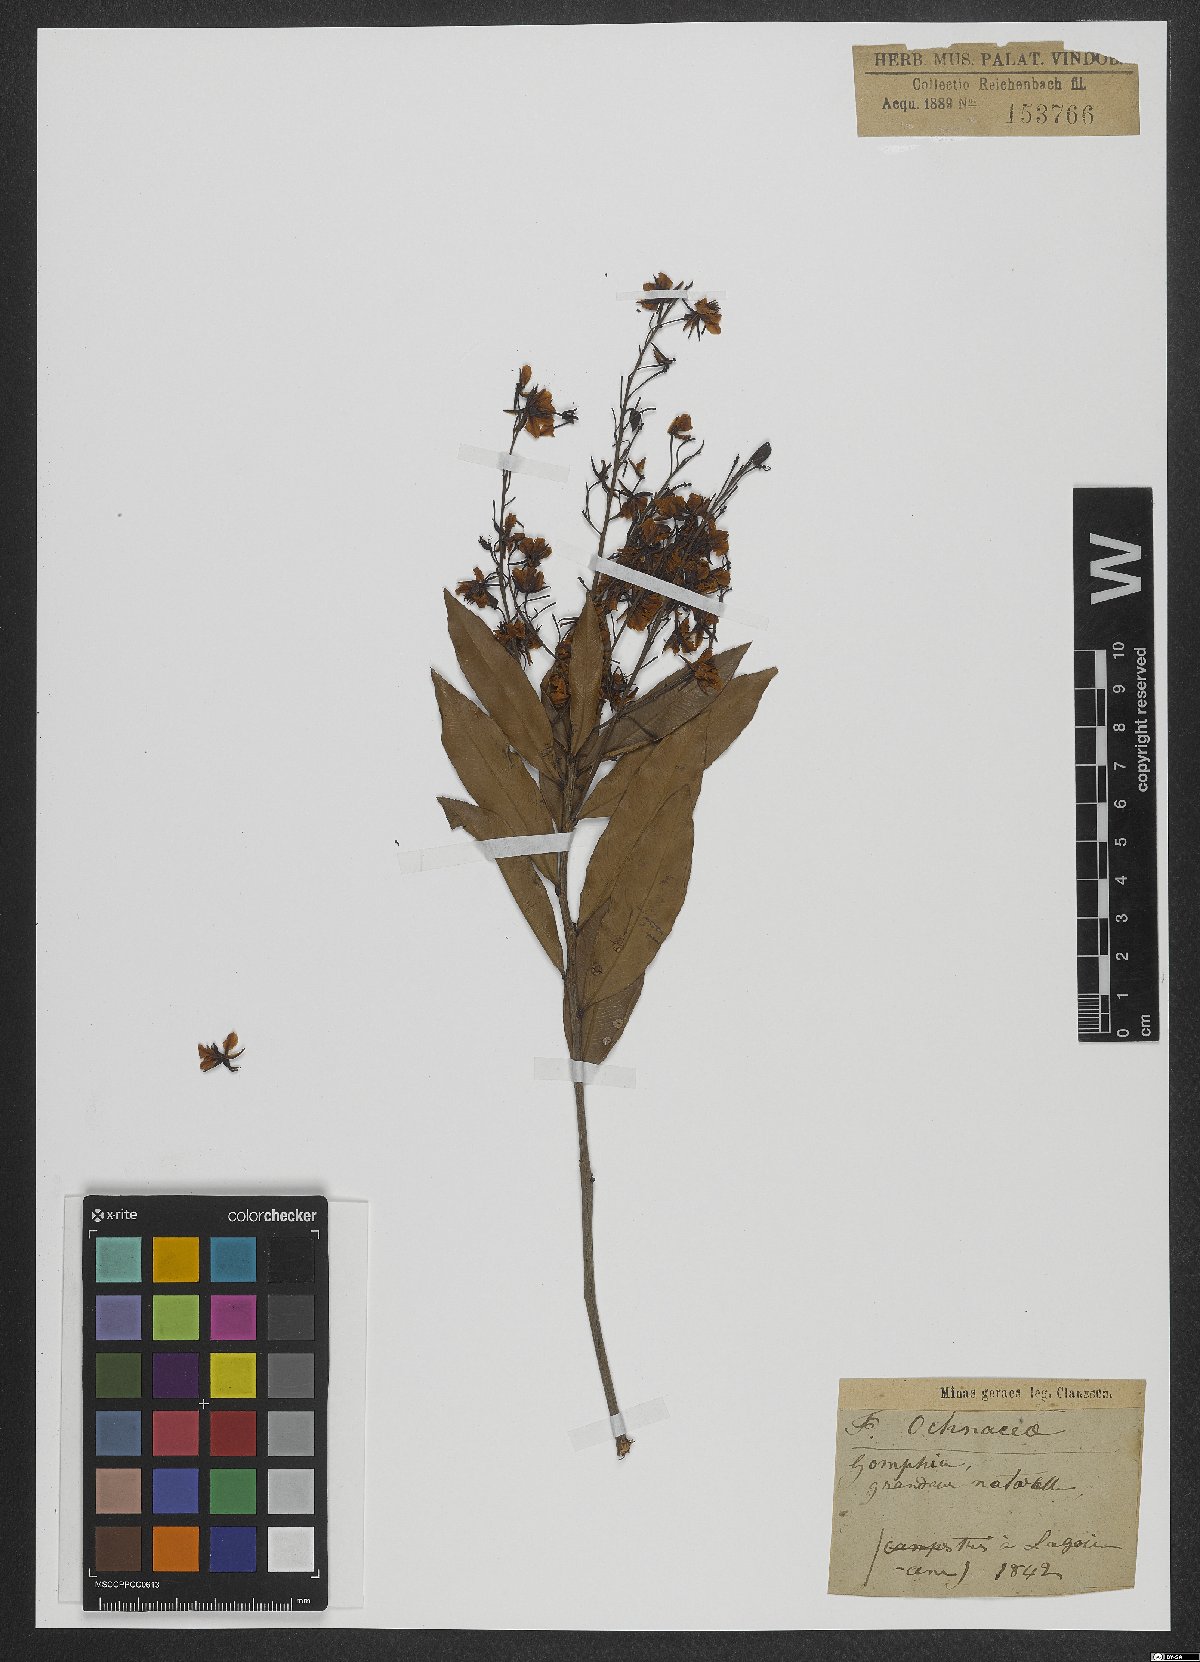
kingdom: Plantae
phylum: Tracheophyta
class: Magnoliopsida
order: Malpighiales
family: Ochnaceae
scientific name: Ochnaceae
